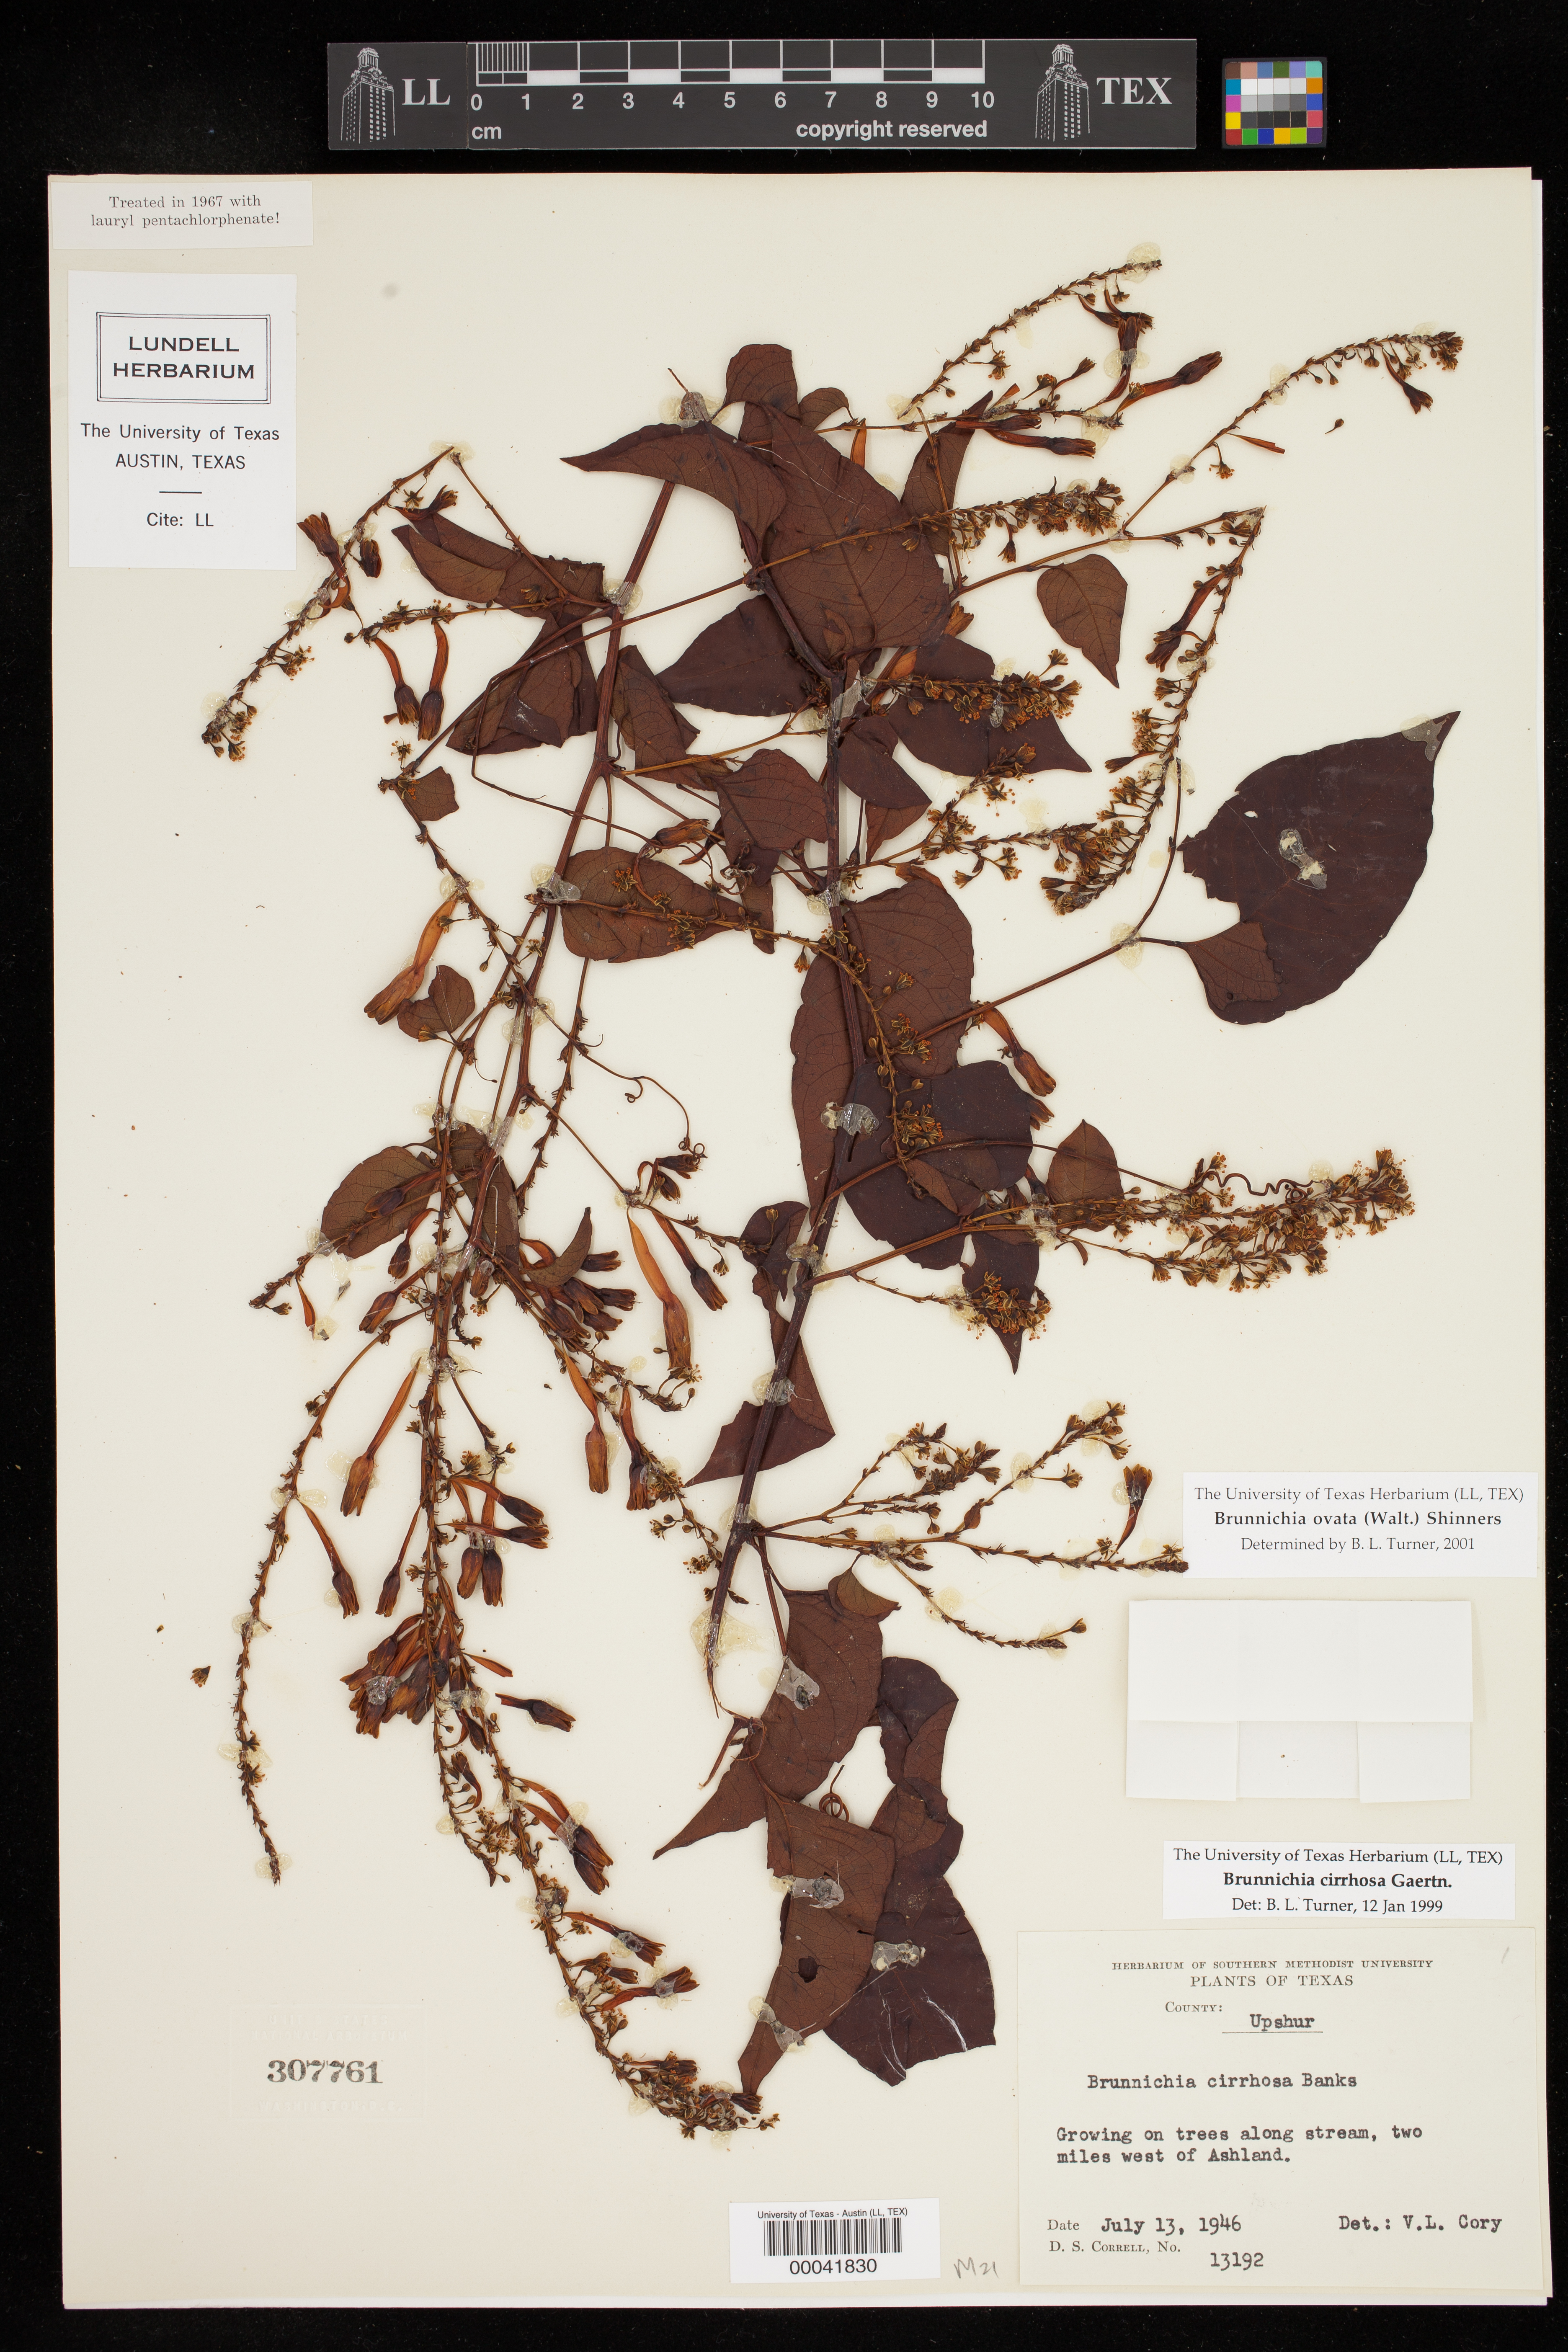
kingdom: Plantae
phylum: Tracheophyta
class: Magnoliopsida
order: Caryophyllales
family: Polygonaceae
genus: Brunnichia
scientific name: Brunnichia ovata
